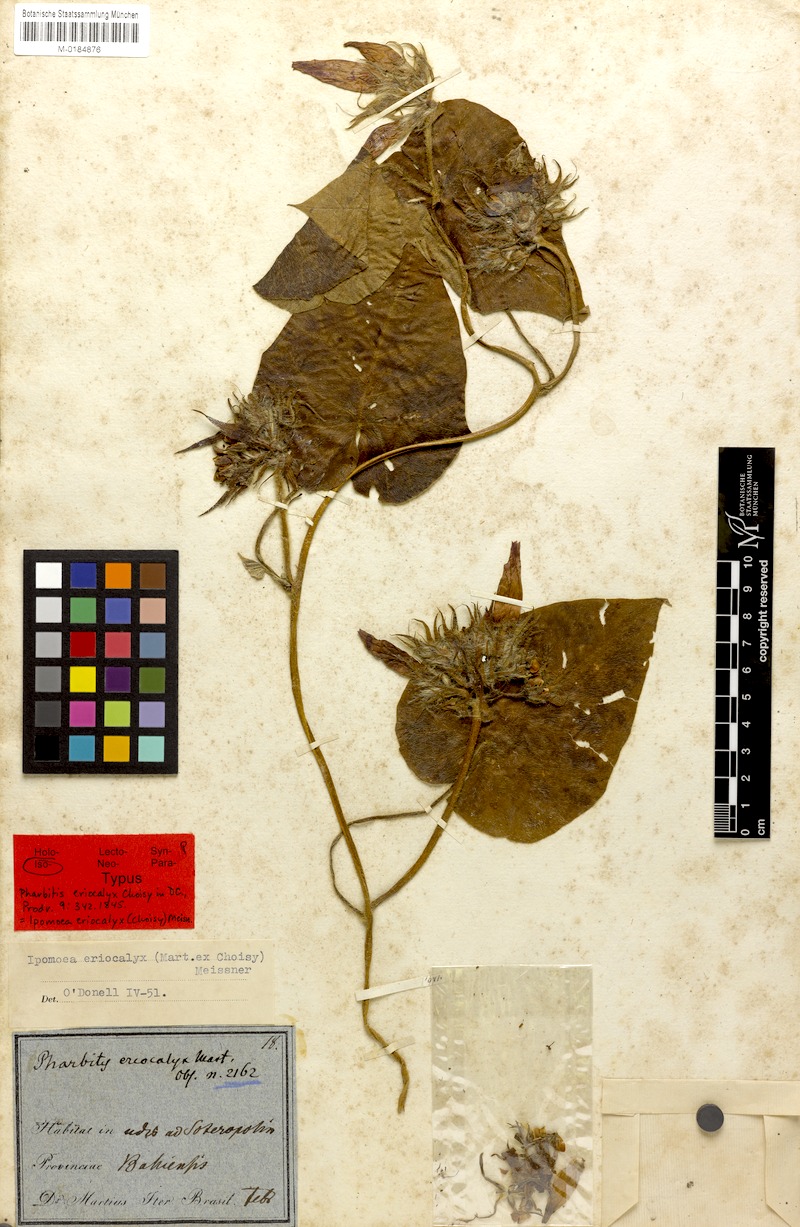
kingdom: Plantae
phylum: Tracheophyta
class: Magnoliopsida
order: Solanales
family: Convolvulaceae
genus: Ipomoea
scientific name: Ipomoea eriocalyx
